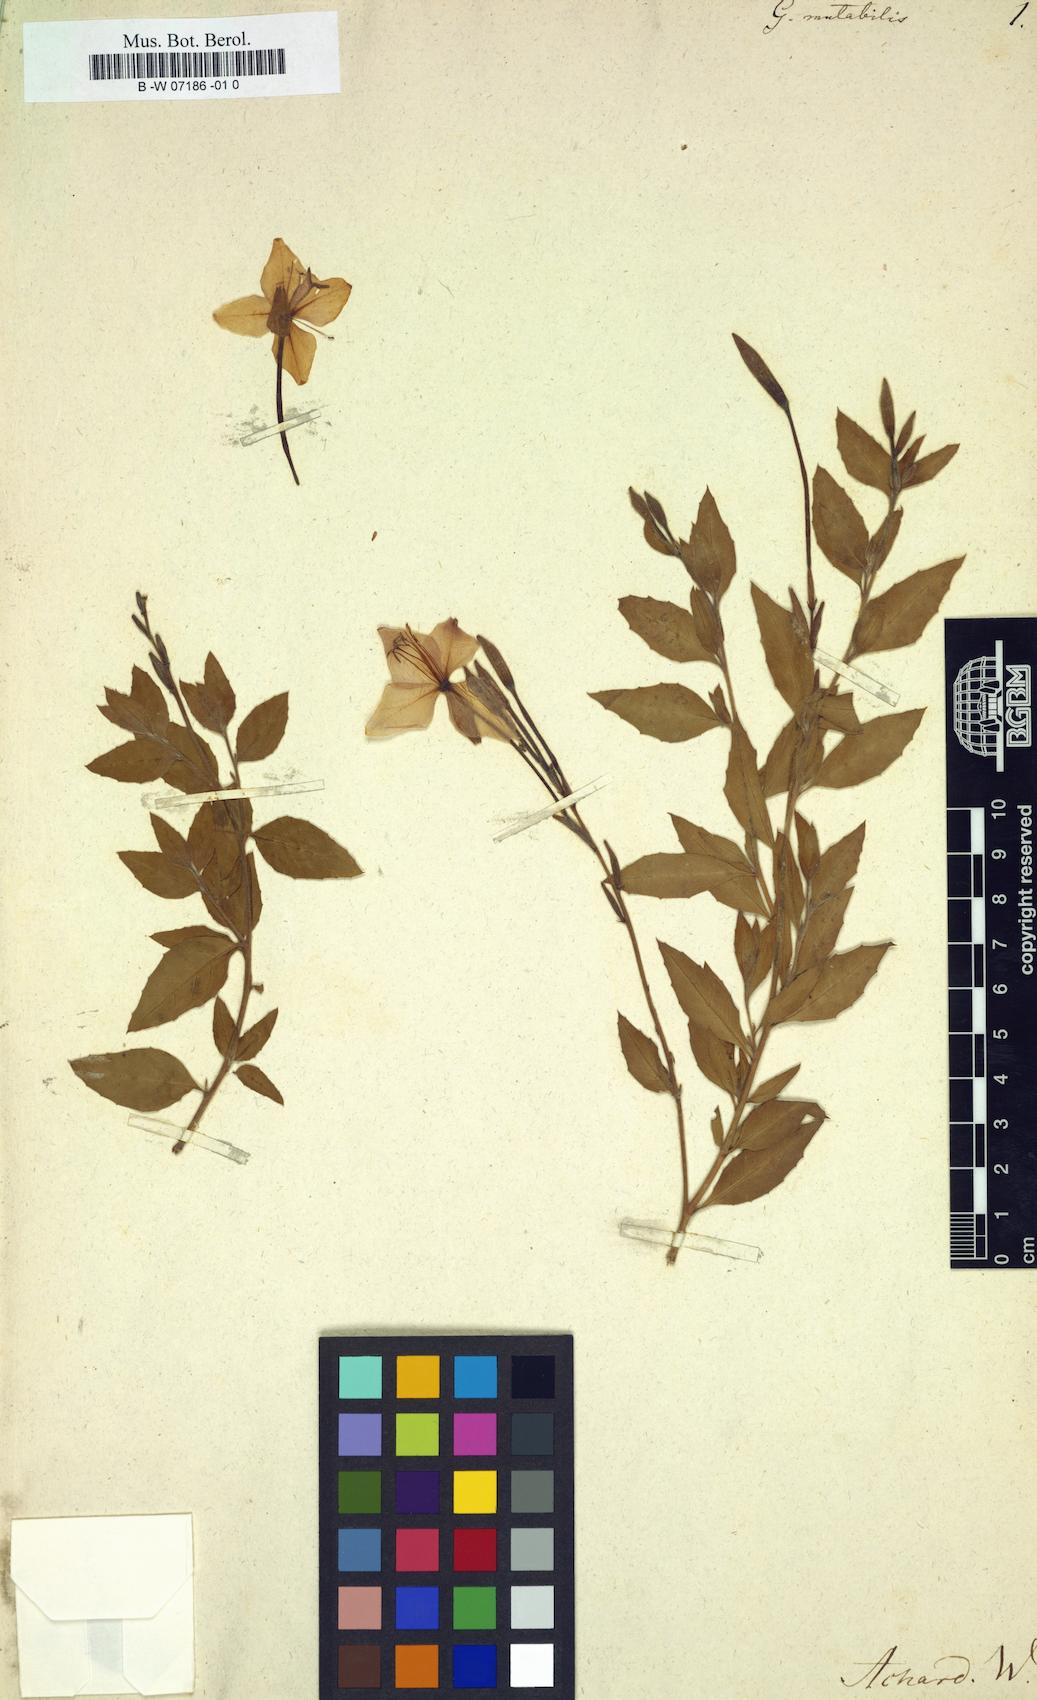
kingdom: Plantae
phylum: Tracheophyta
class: Magnoliopsida
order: Myrtales
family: Onagraceae
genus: Oenothera
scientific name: Oenothera anomala
